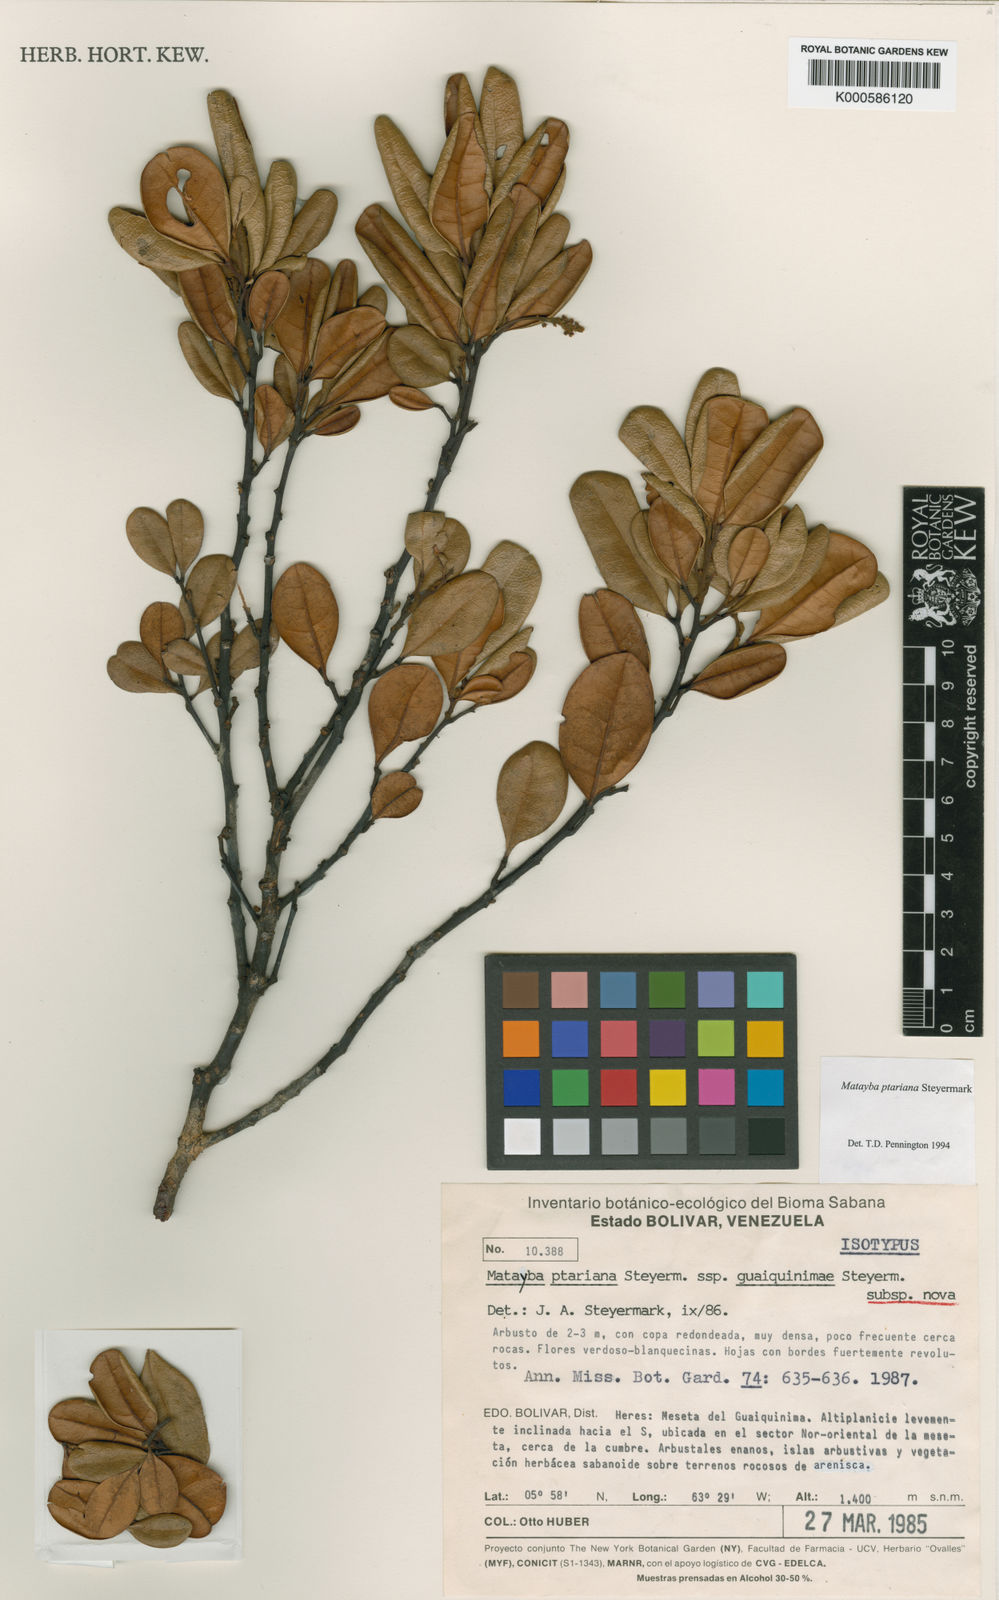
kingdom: Plantae
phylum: Tracheophyta
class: Magnoliopsida
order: Sapindales
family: Sapindaceae
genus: Matayba
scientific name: Matayba ptariana
